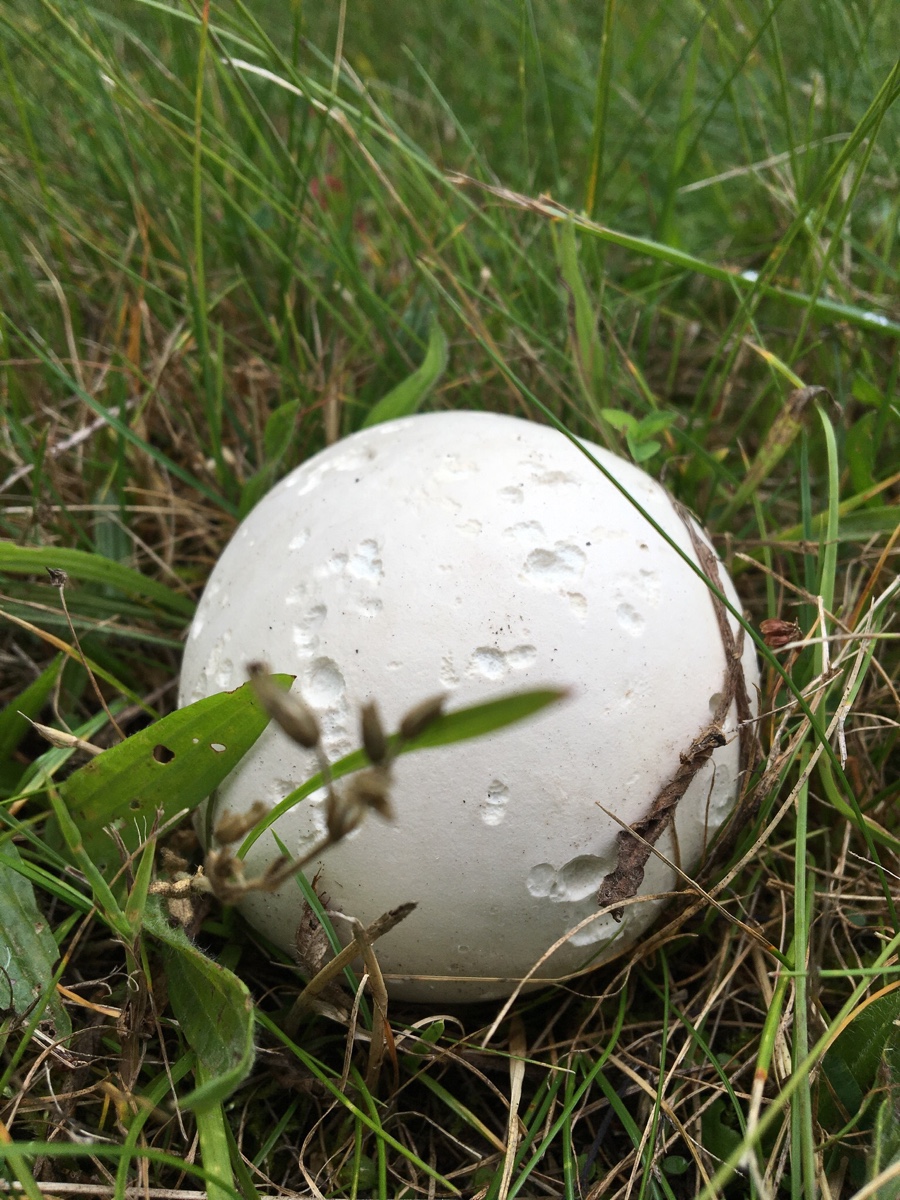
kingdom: Fungi
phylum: Basidiomycota
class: Agaricomycetes
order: Agaricales
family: Lycoperdaceae
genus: Calvatia
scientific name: Calvatia gigantea
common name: kæmpestøvbold
